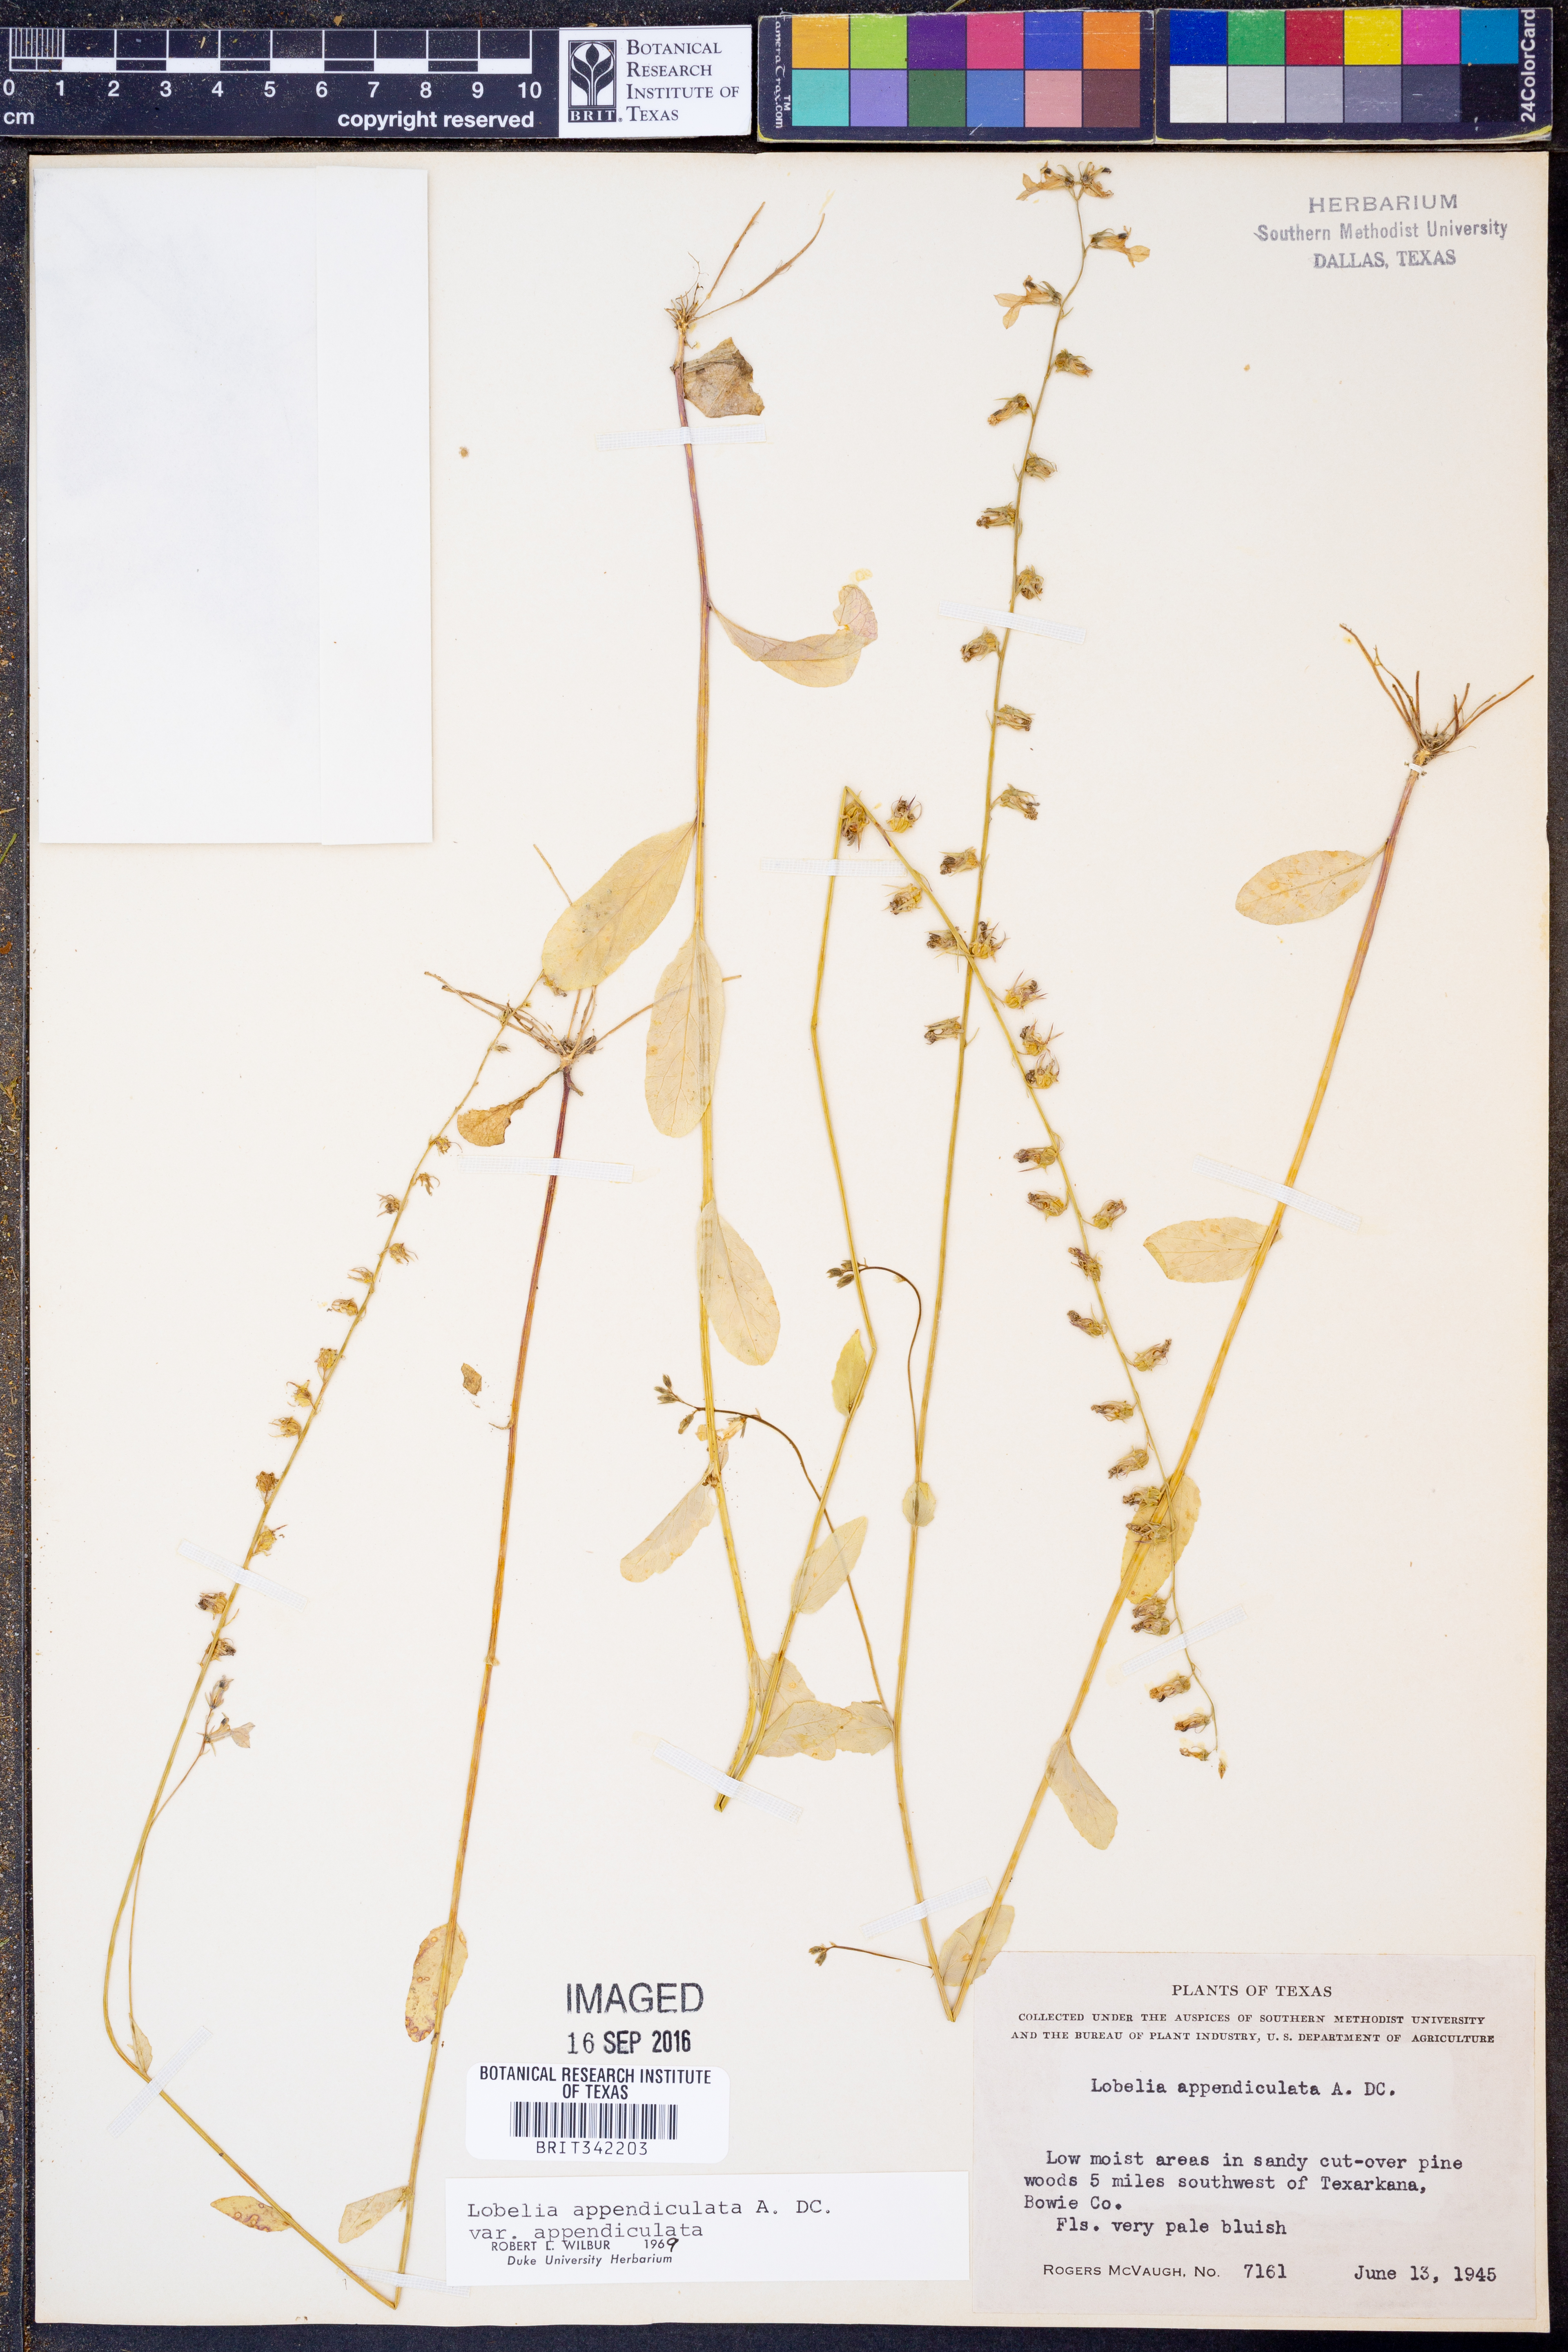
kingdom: Plantae
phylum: Tracheophyta
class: Magnoliopsida
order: Asterales
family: Campanulaceae
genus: Lobelia
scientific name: Lobelia appendiculata
